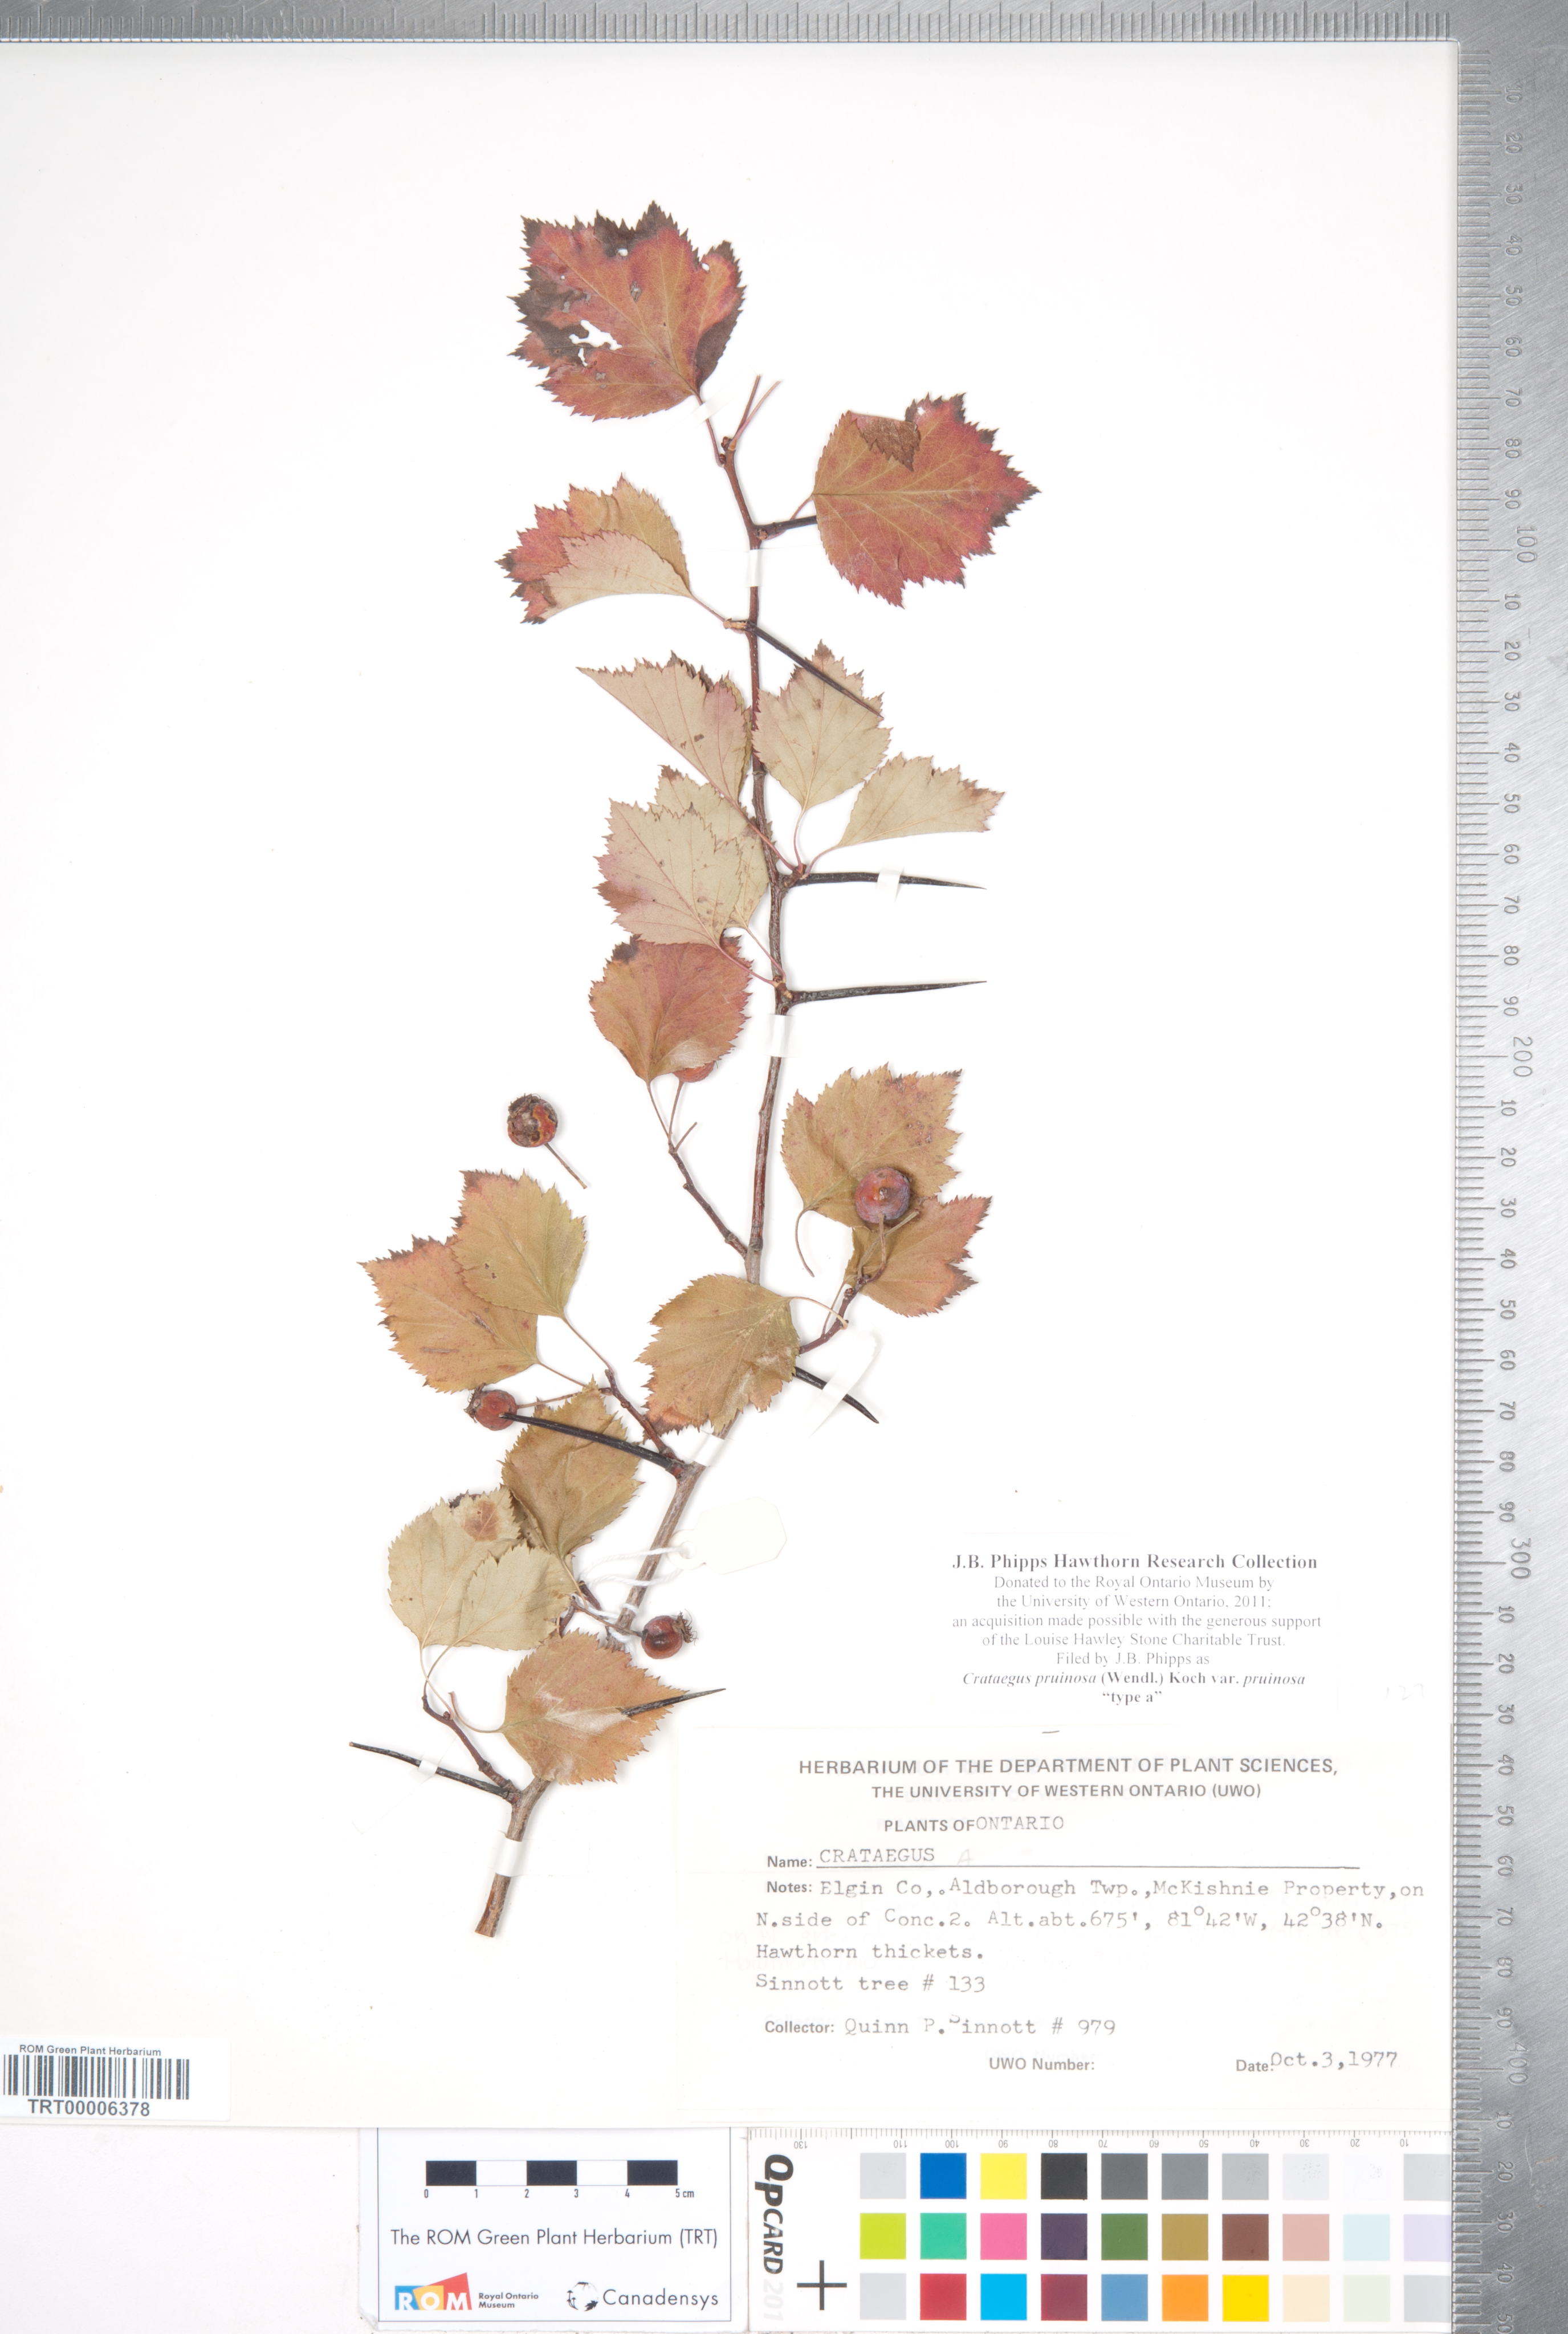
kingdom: Plantae
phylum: Tracheophyta
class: Magnoliopsida
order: Rosales
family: Rosaceae
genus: Crataegus
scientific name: Crataegus pruinosa
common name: Waxy-fruit hawthorn
